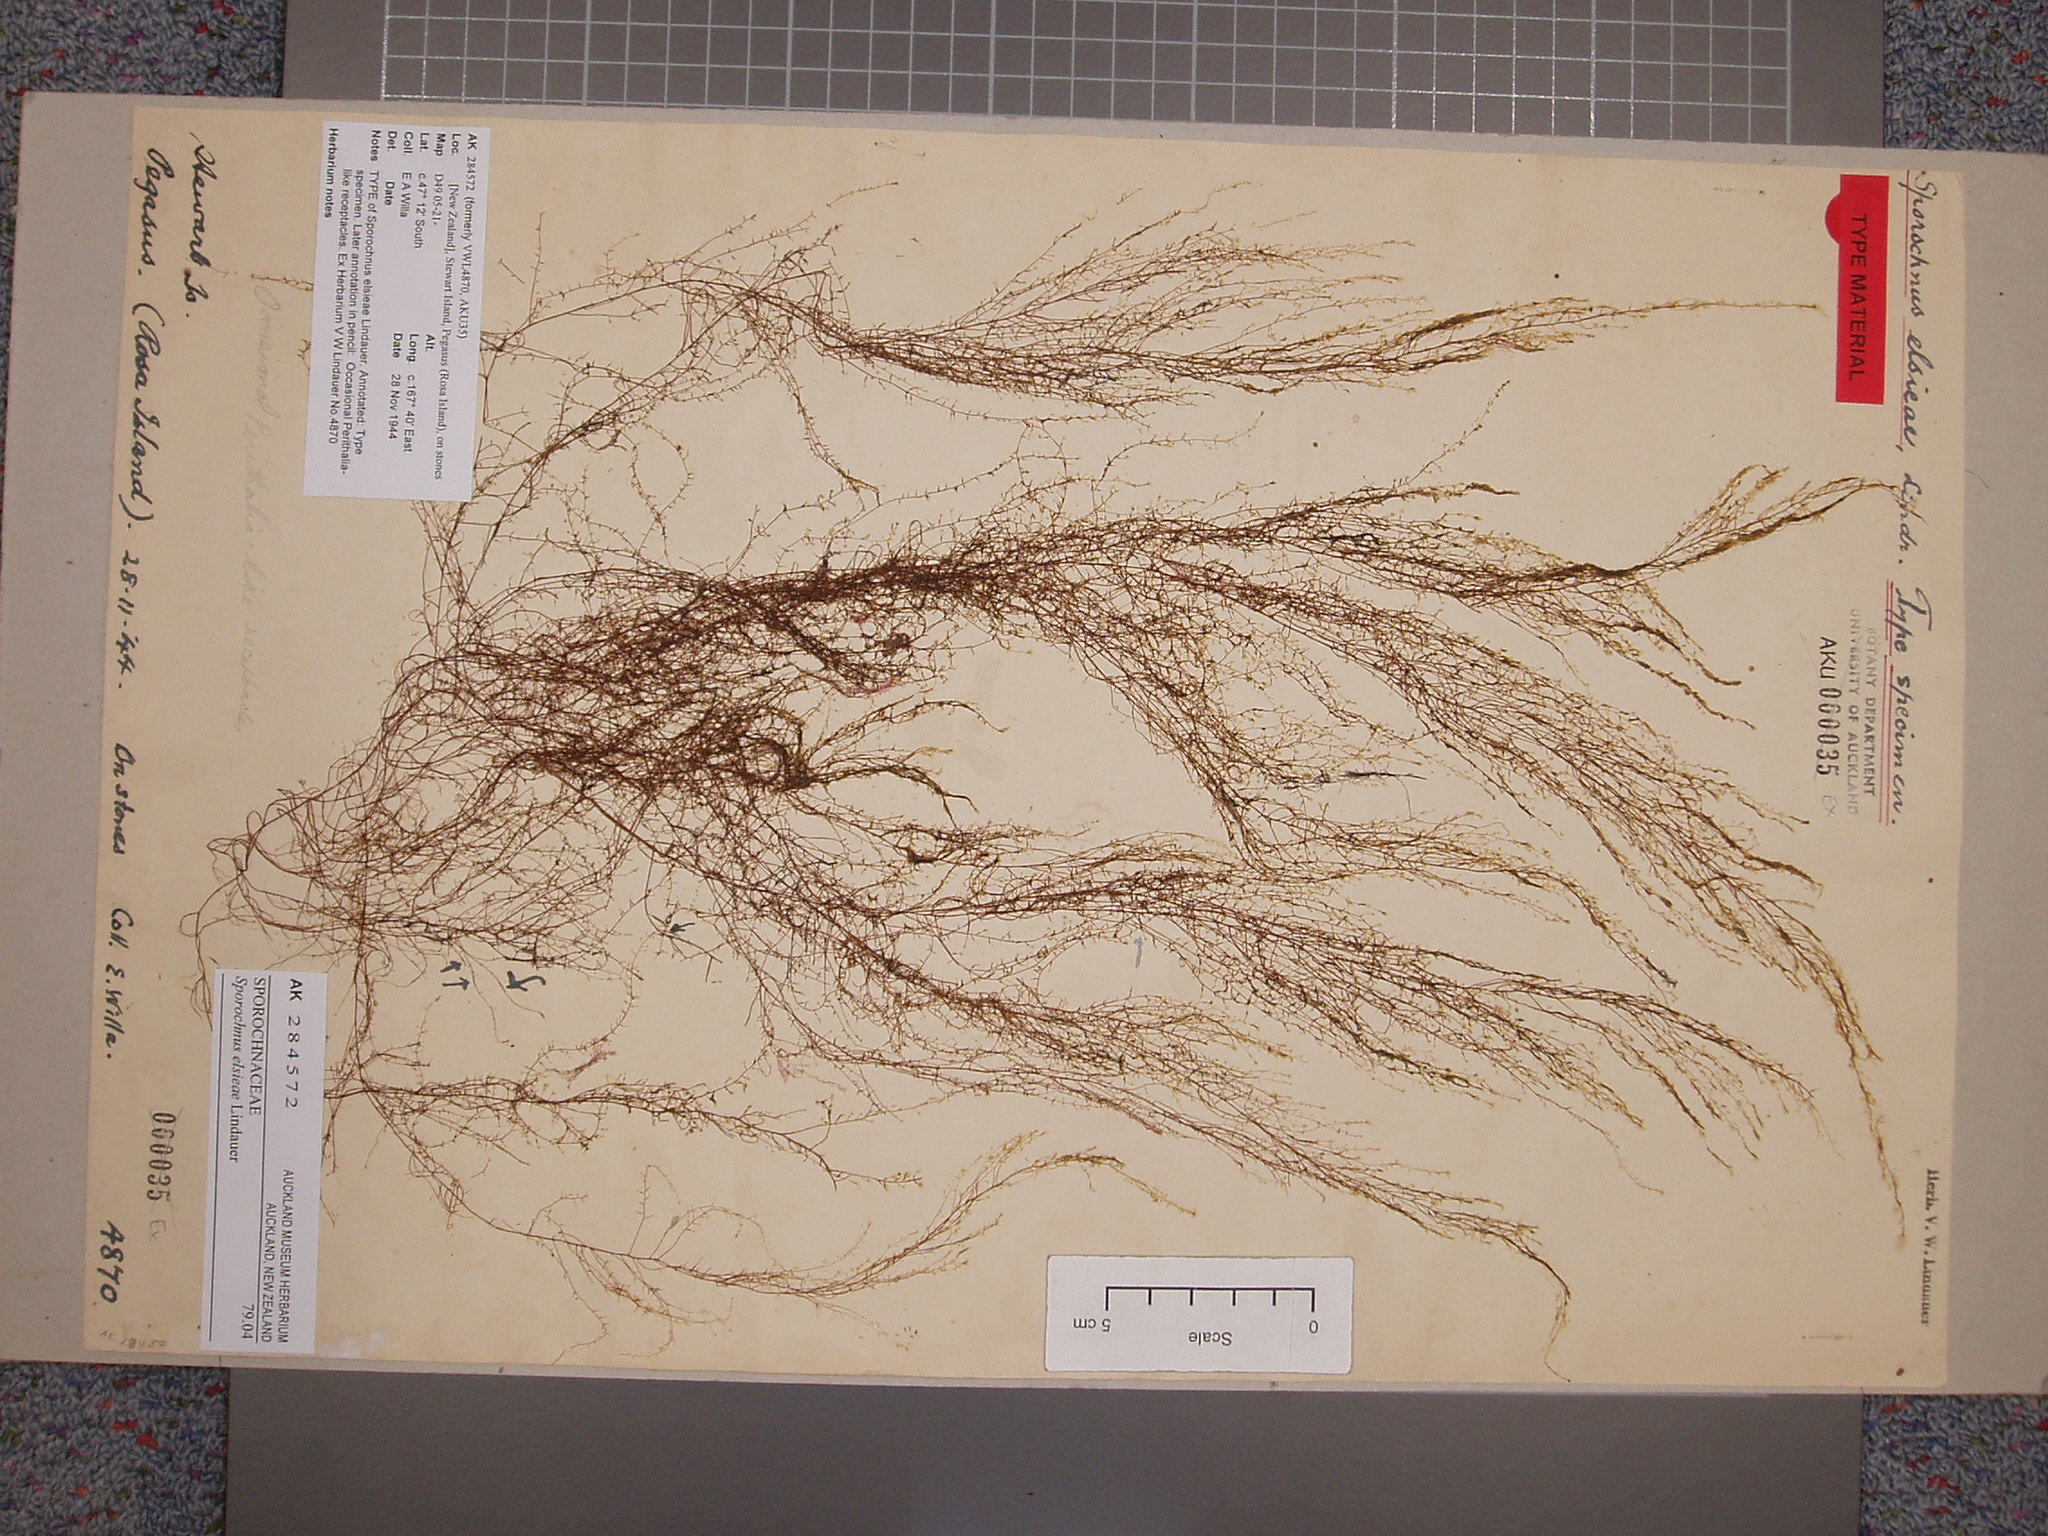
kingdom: Chromista
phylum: Ochrophyta
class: Phaeophyceae
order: Sporochnales
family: Sporochnaceae
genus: Sporochnus
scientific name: Sporochnus elsieae
